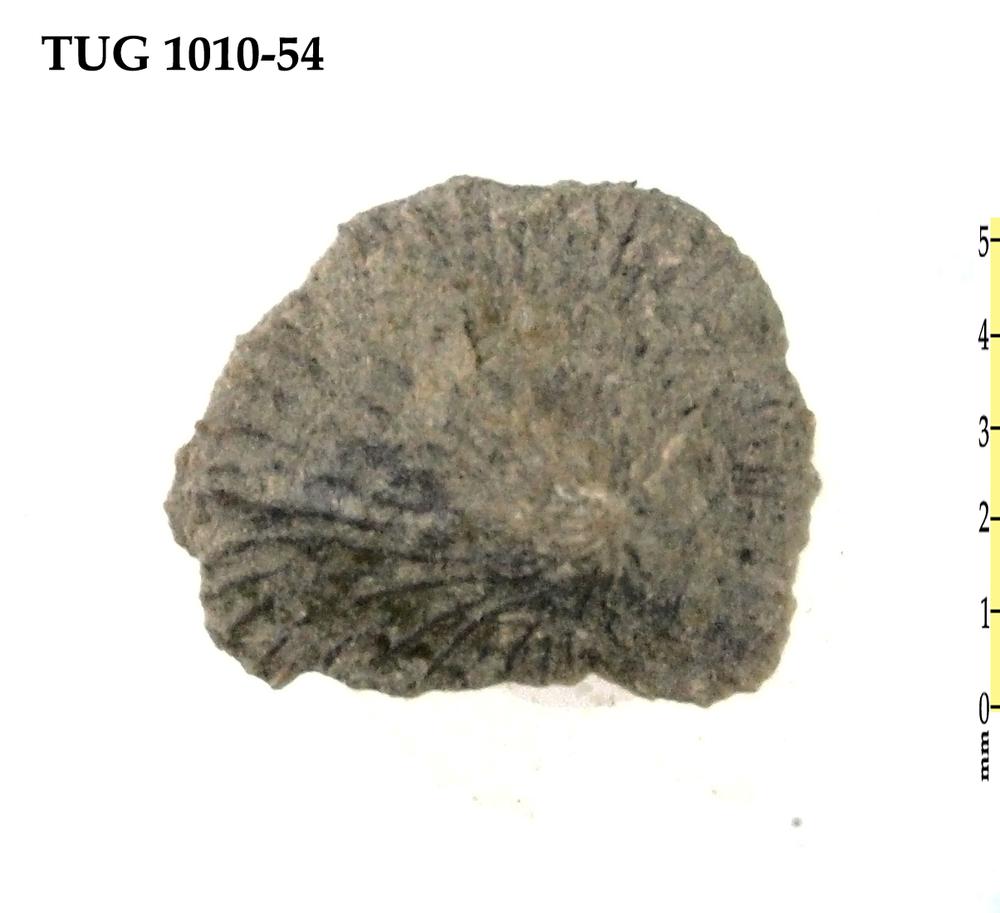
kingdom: Animalia
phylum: Brachiopoda
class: Craniata
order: Craniida
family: Craniidae
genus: Philhedra
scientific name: Philhedra
